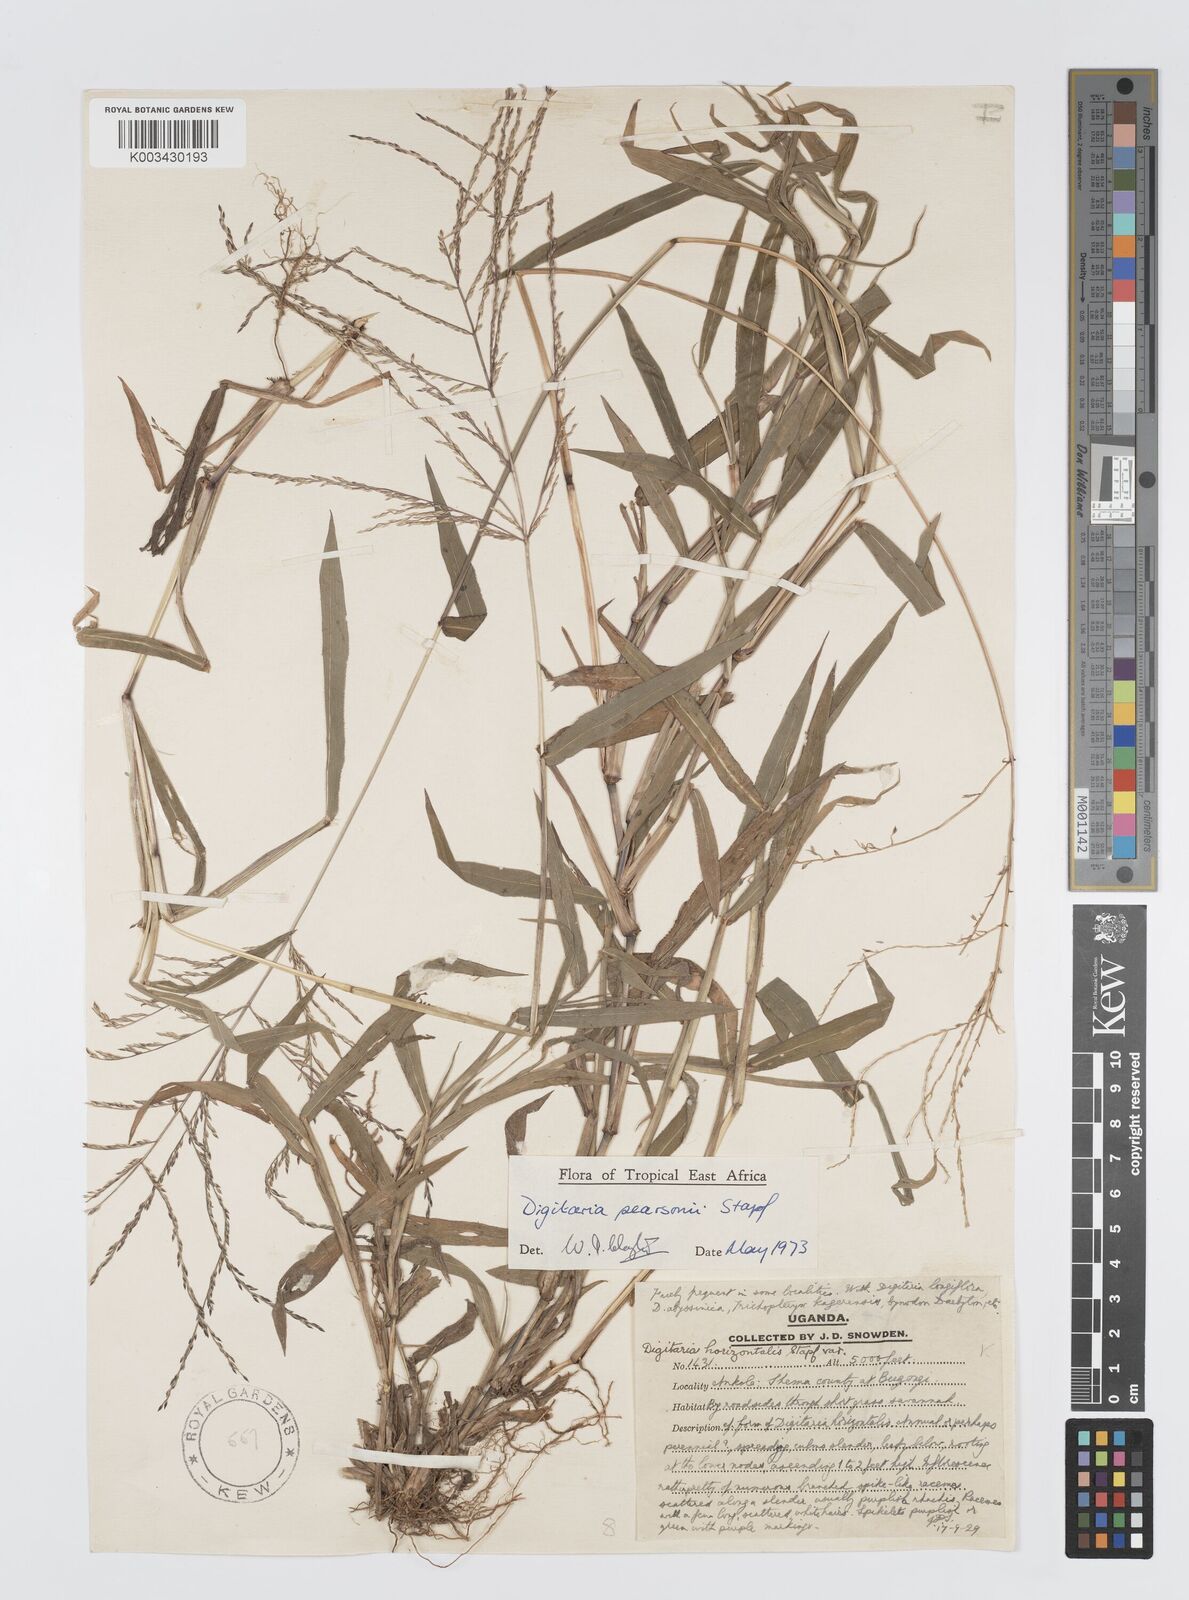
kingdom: Plantae
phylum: Tracheophyta
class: Liliopsida
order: Poales
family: Poaceae
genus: Digitaria
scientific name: Digitaria pearsonii
